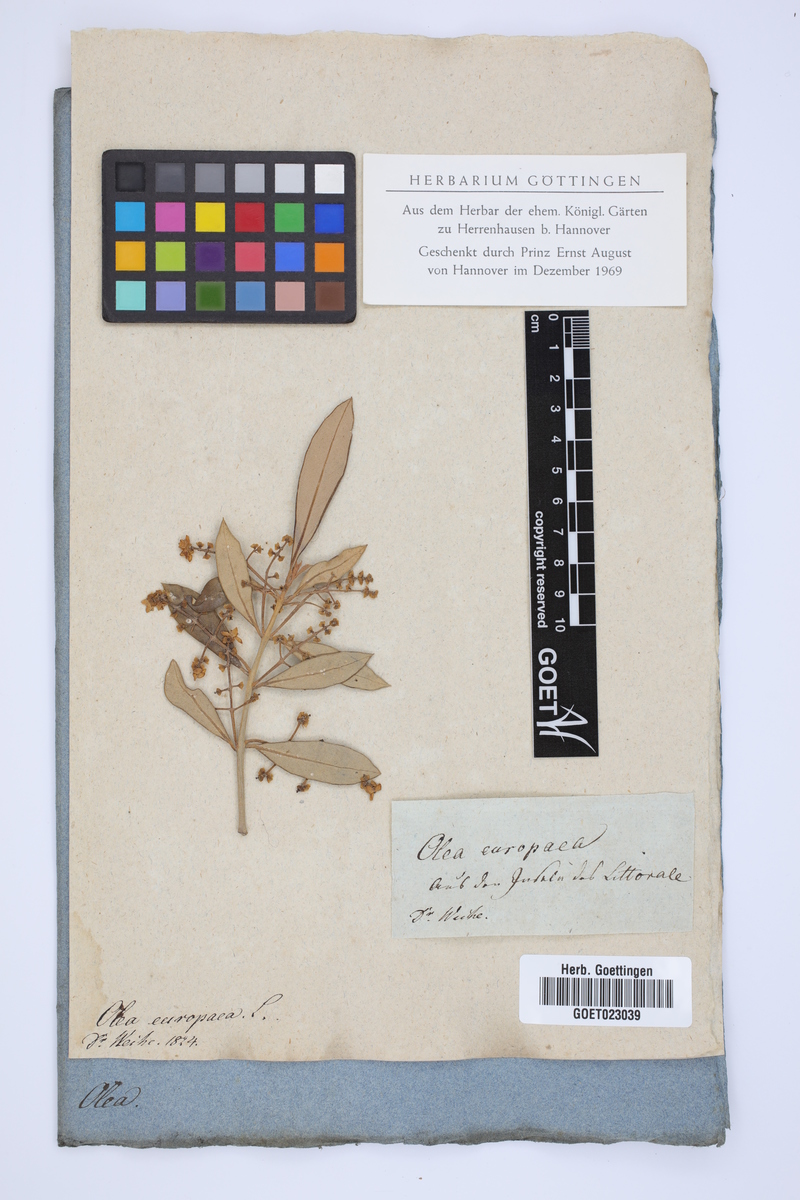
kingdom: Plantae
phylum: Tracheophyta
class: Magnoliopsida
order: Lamiales
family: Oleaceae
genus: Olea
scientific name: Olea europaea
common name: Olive
